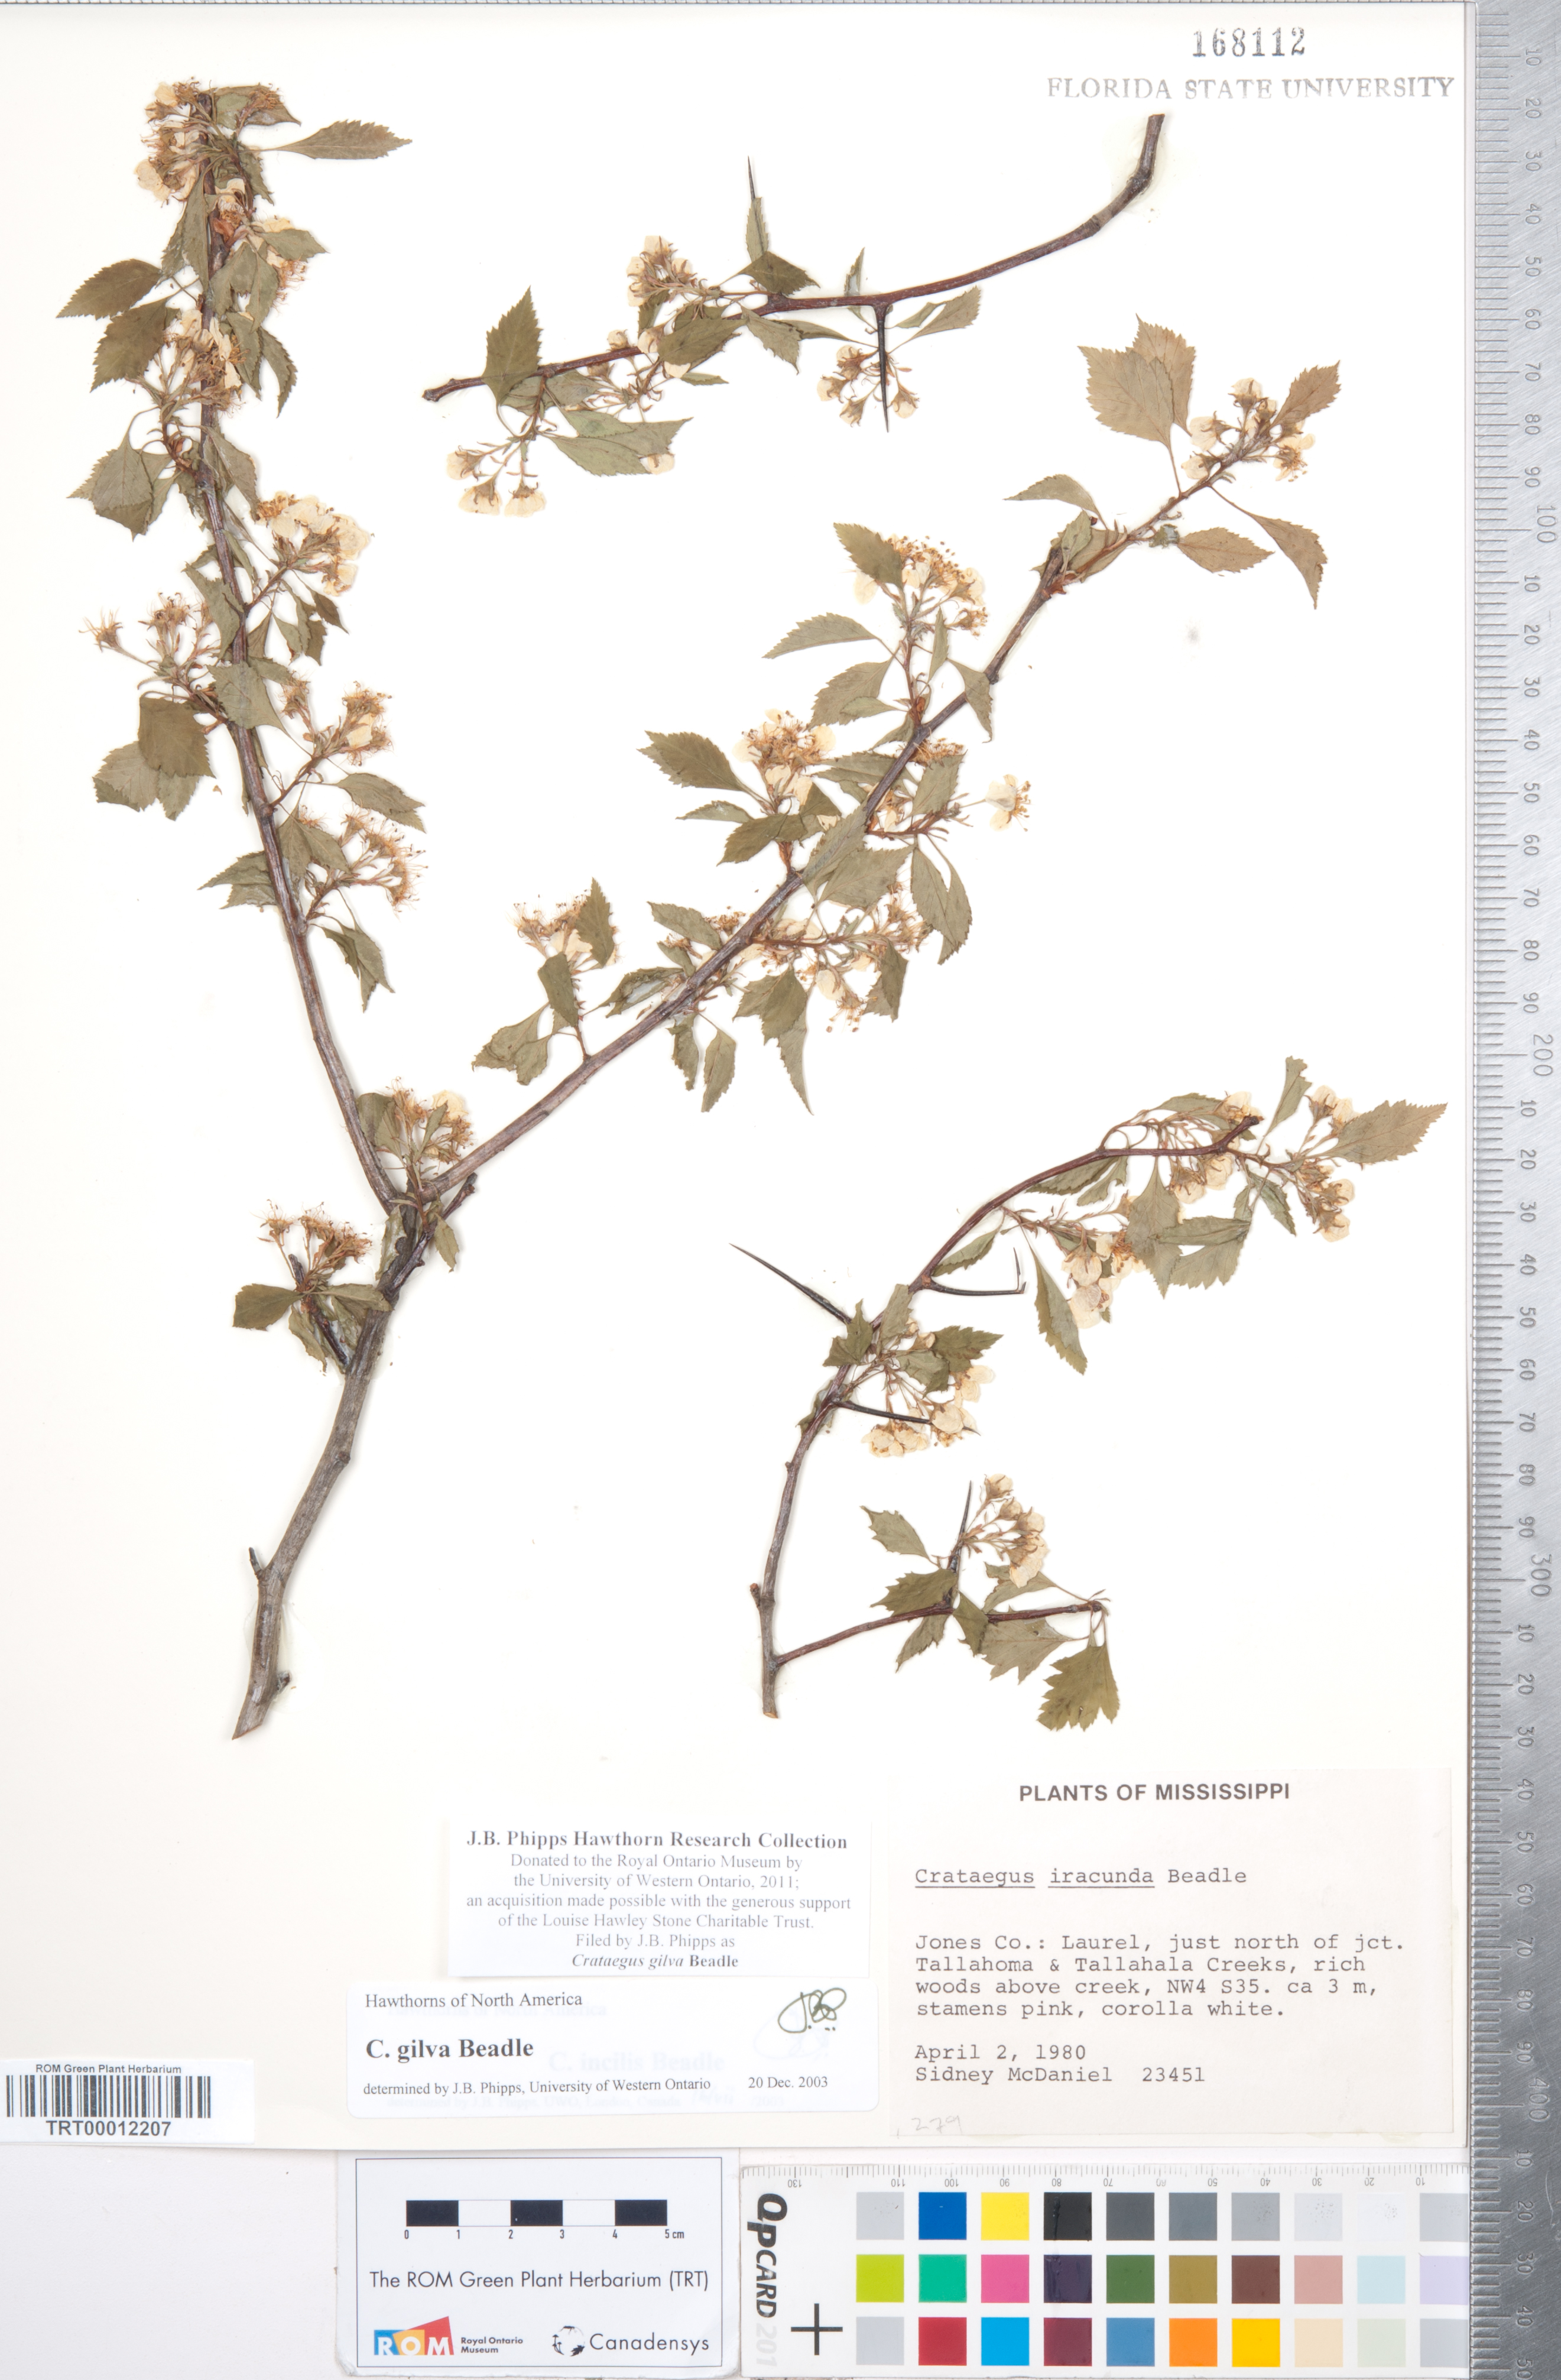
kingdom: Plantae
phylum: Tracheophyta
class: Magnoliopsida
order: Rosales
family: Rosaceae
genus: Crataegus
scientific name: Crataegus sargentii
